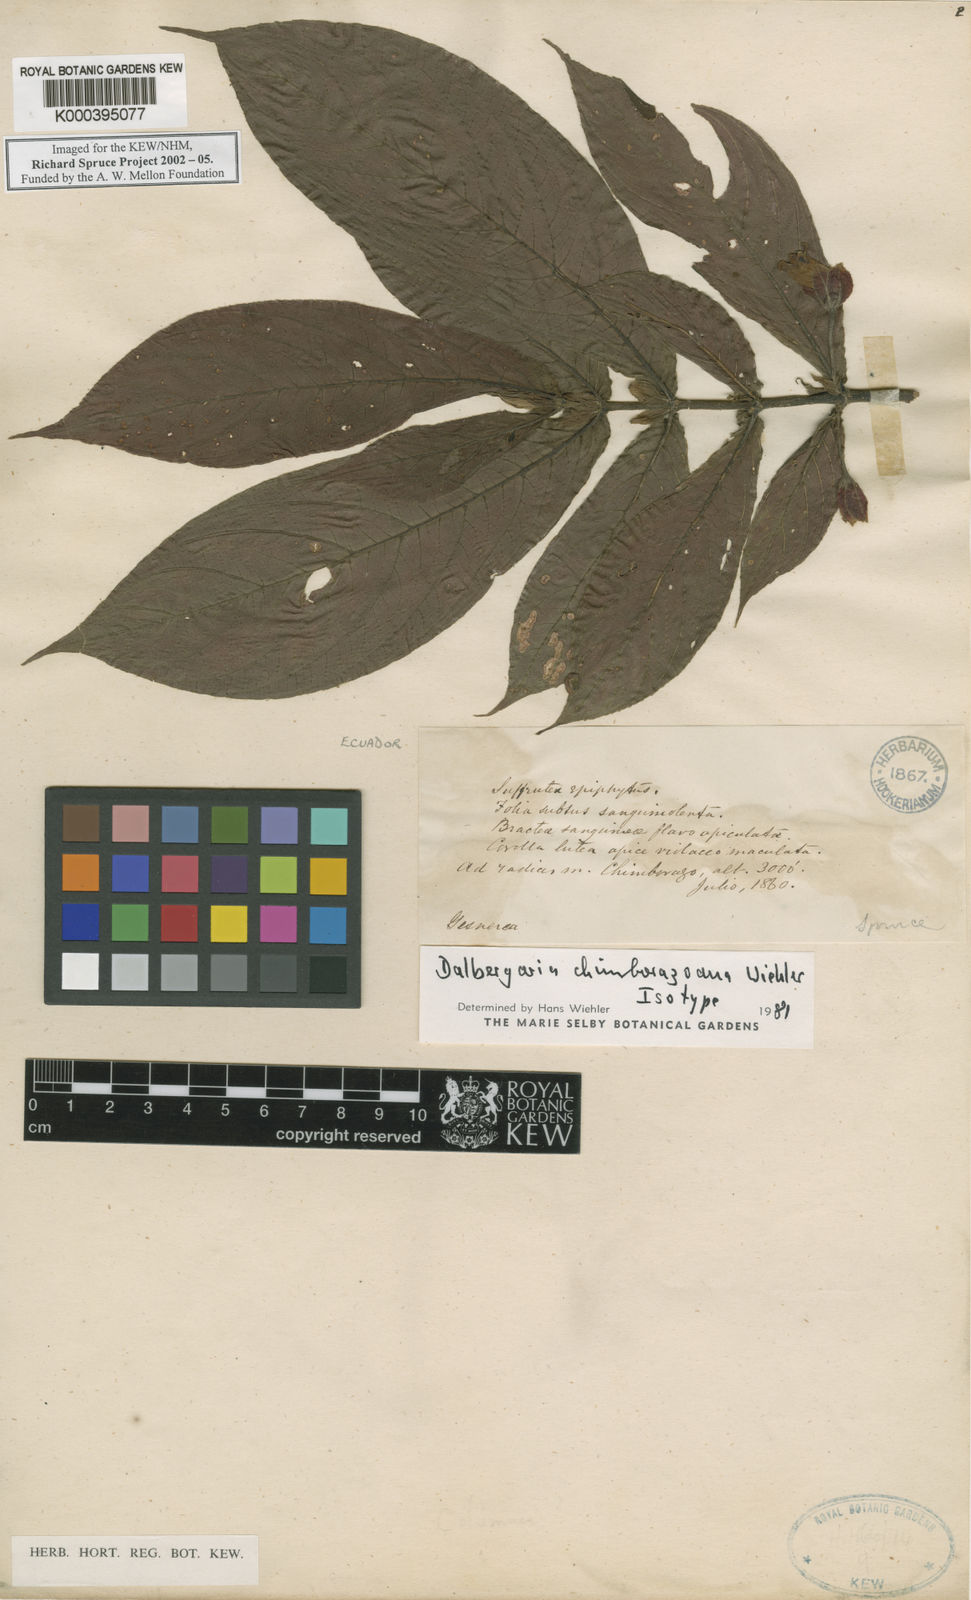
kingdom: Plantae
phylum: Tracheophyta
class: Magnoliopsida
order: Lamiales
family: Gesneriaceae
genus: Columnea
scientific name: Columnea
